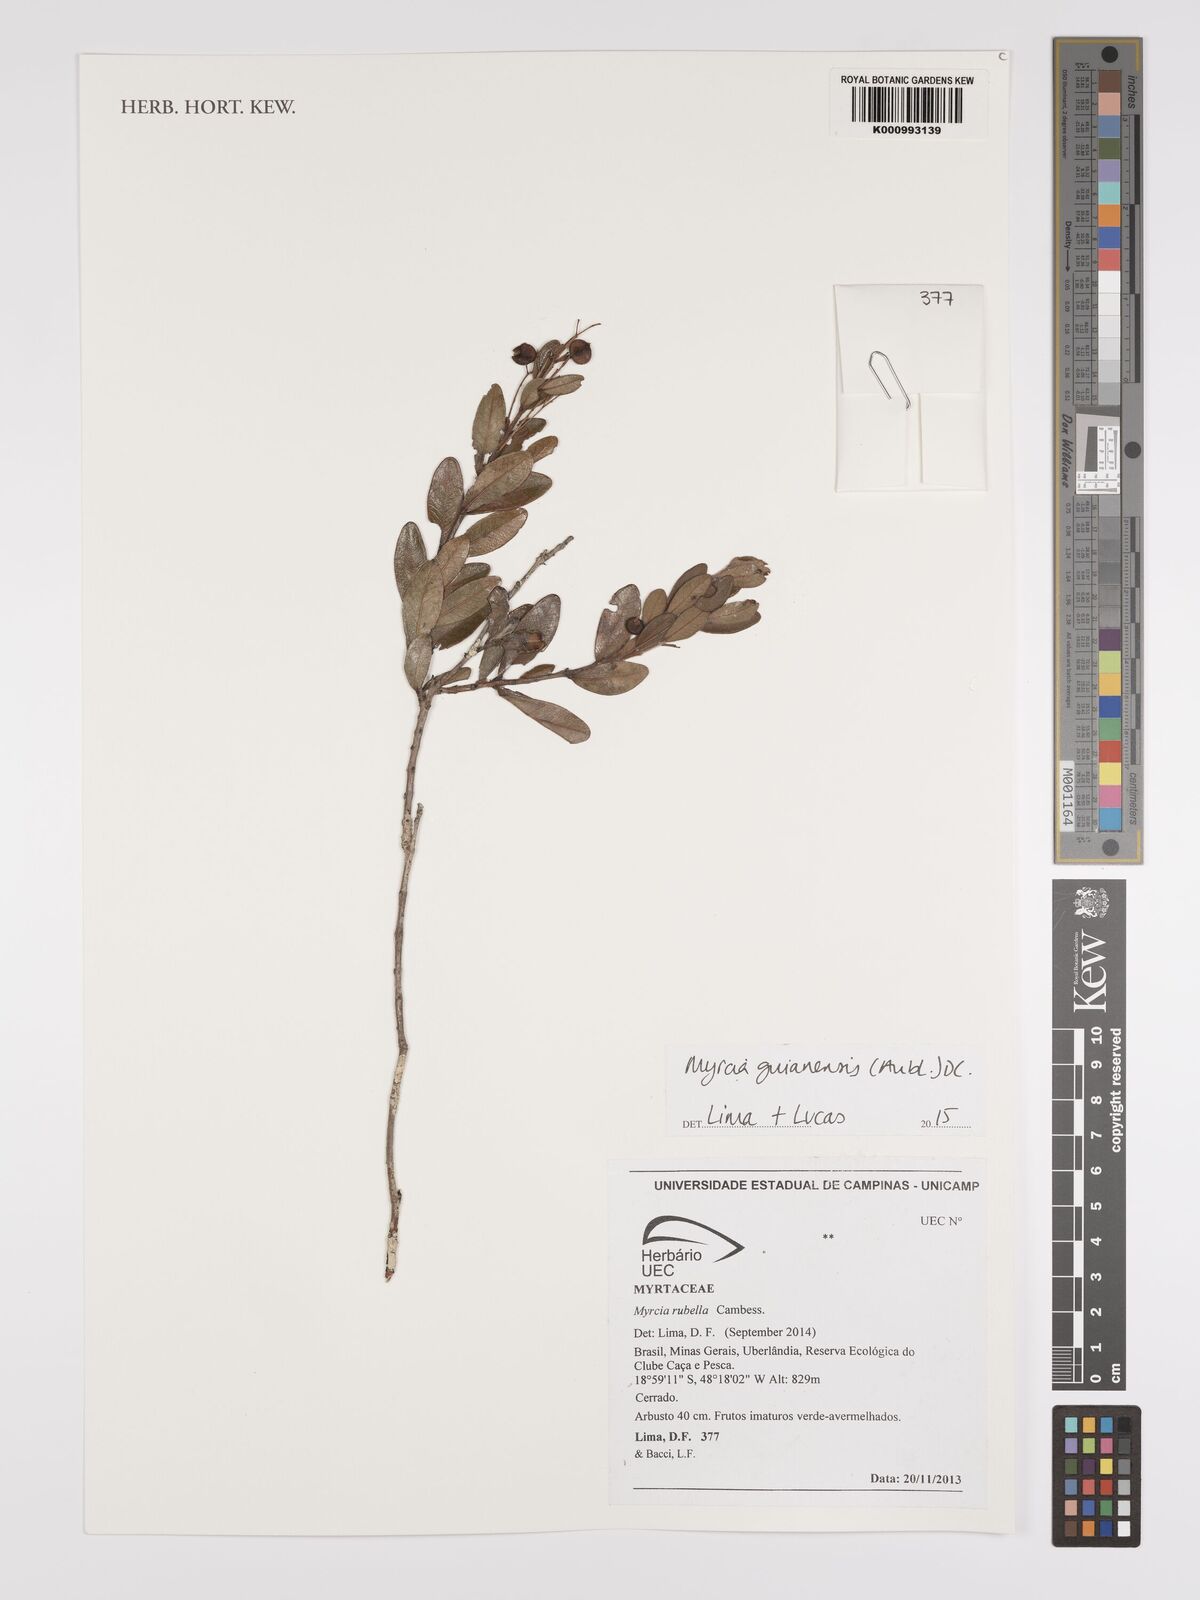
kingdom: Plantae
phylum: Tracheophyta
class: Magnoliopsida
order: Myrtales
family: Myrtaceae
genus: Myrcia
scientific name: Myrcia guianensis
